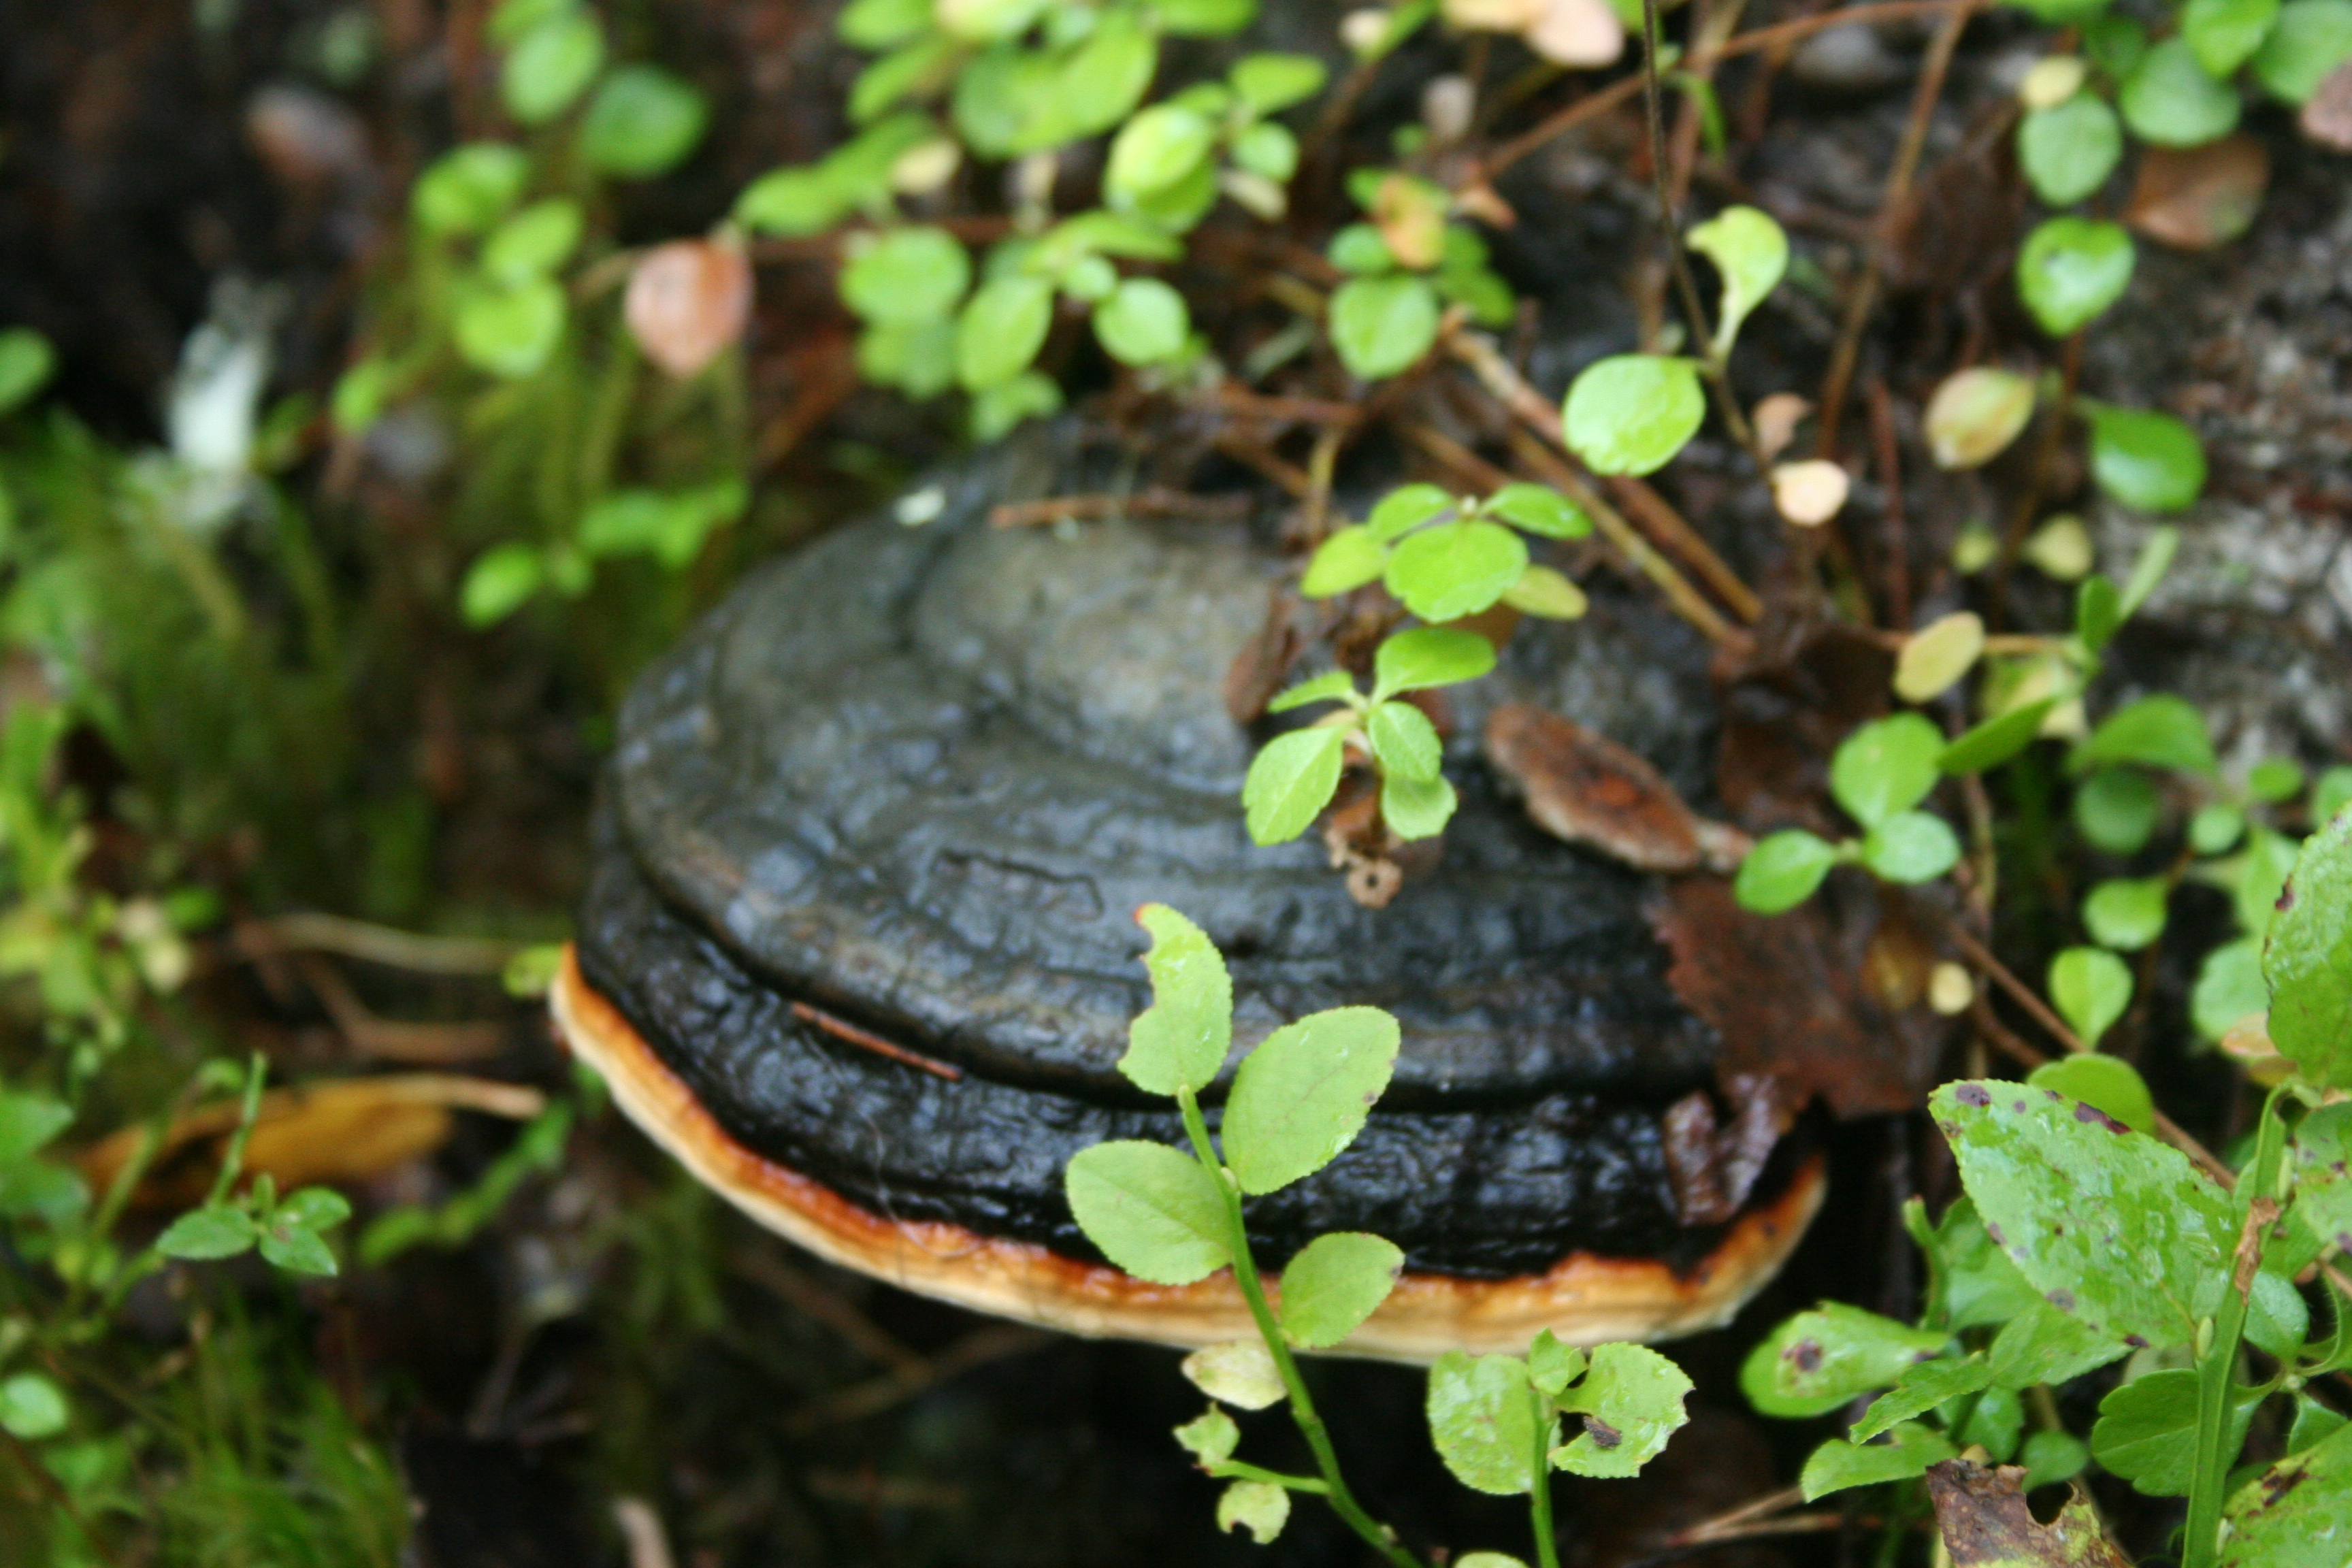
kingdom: Fungi
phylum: Basidiomycota
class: Agaricomycetes
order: Polyporales
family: Fomitopsidaceae
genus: Fomitopsis
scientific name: Fomitopsis pinicola
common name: Red-belted bracket
